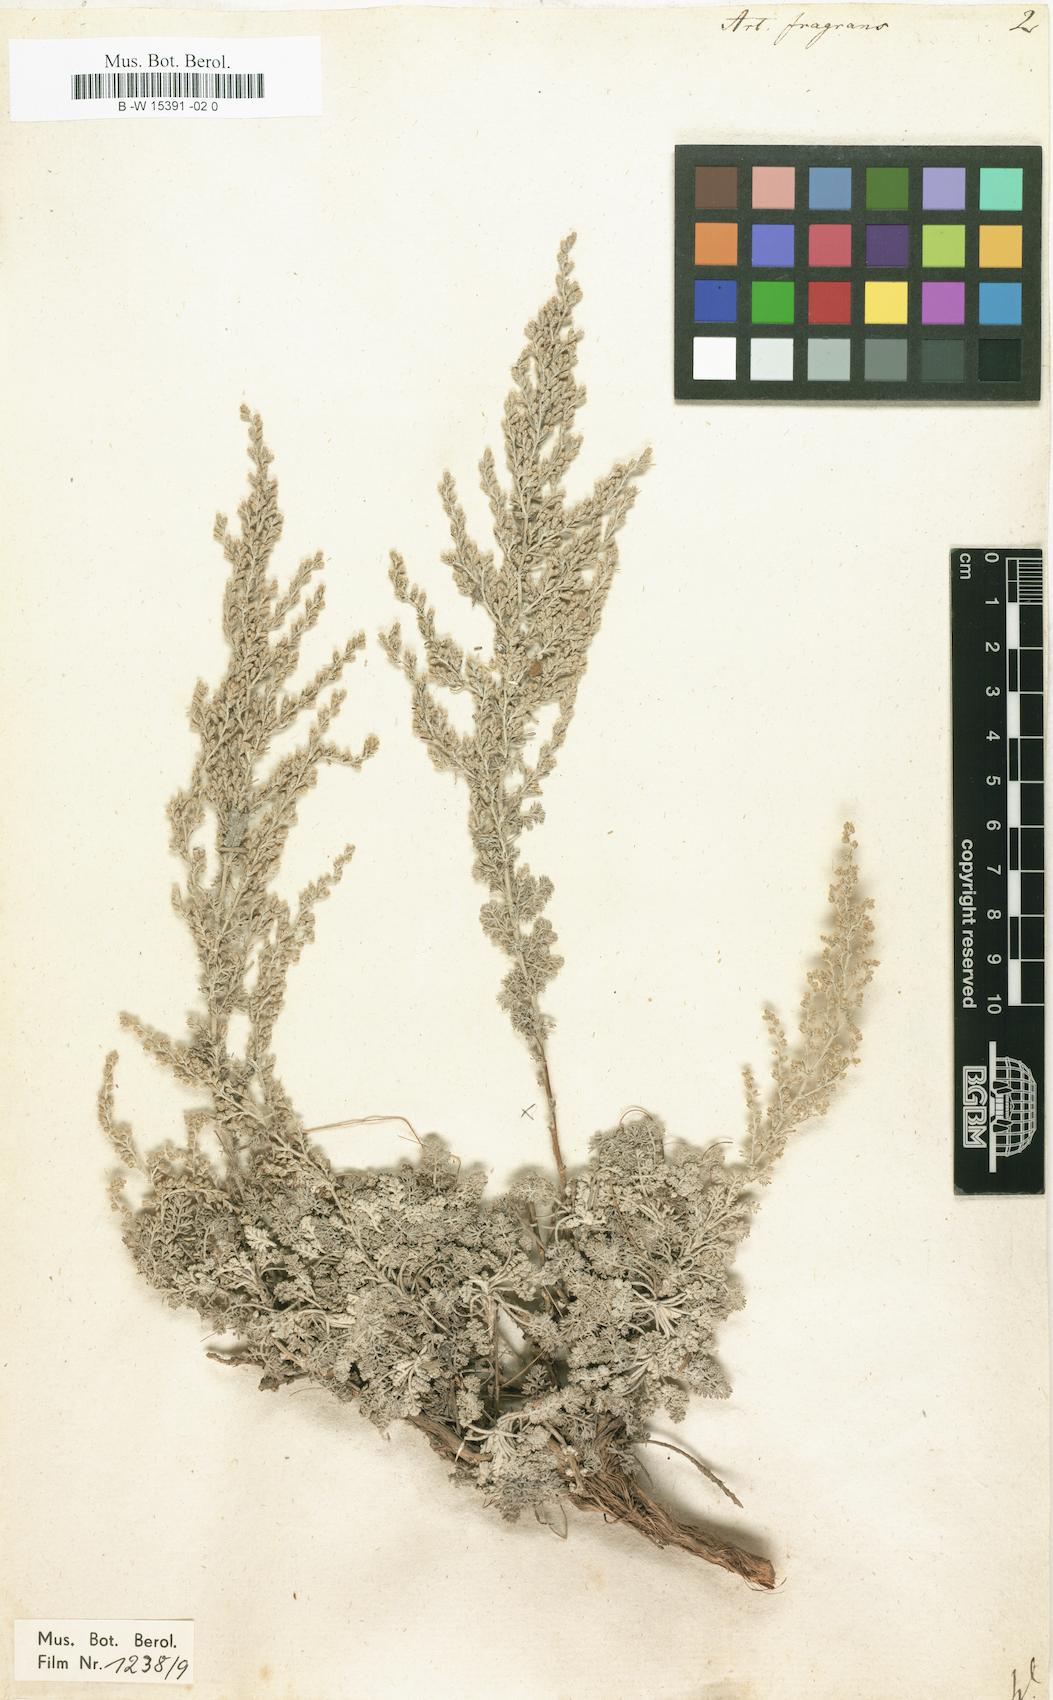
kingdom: Plantae
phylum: Tracheophyta
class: Magnoliopsida
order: Asterales
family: Asteraceae
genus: Artemisia
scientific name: Artemisia fragrans
